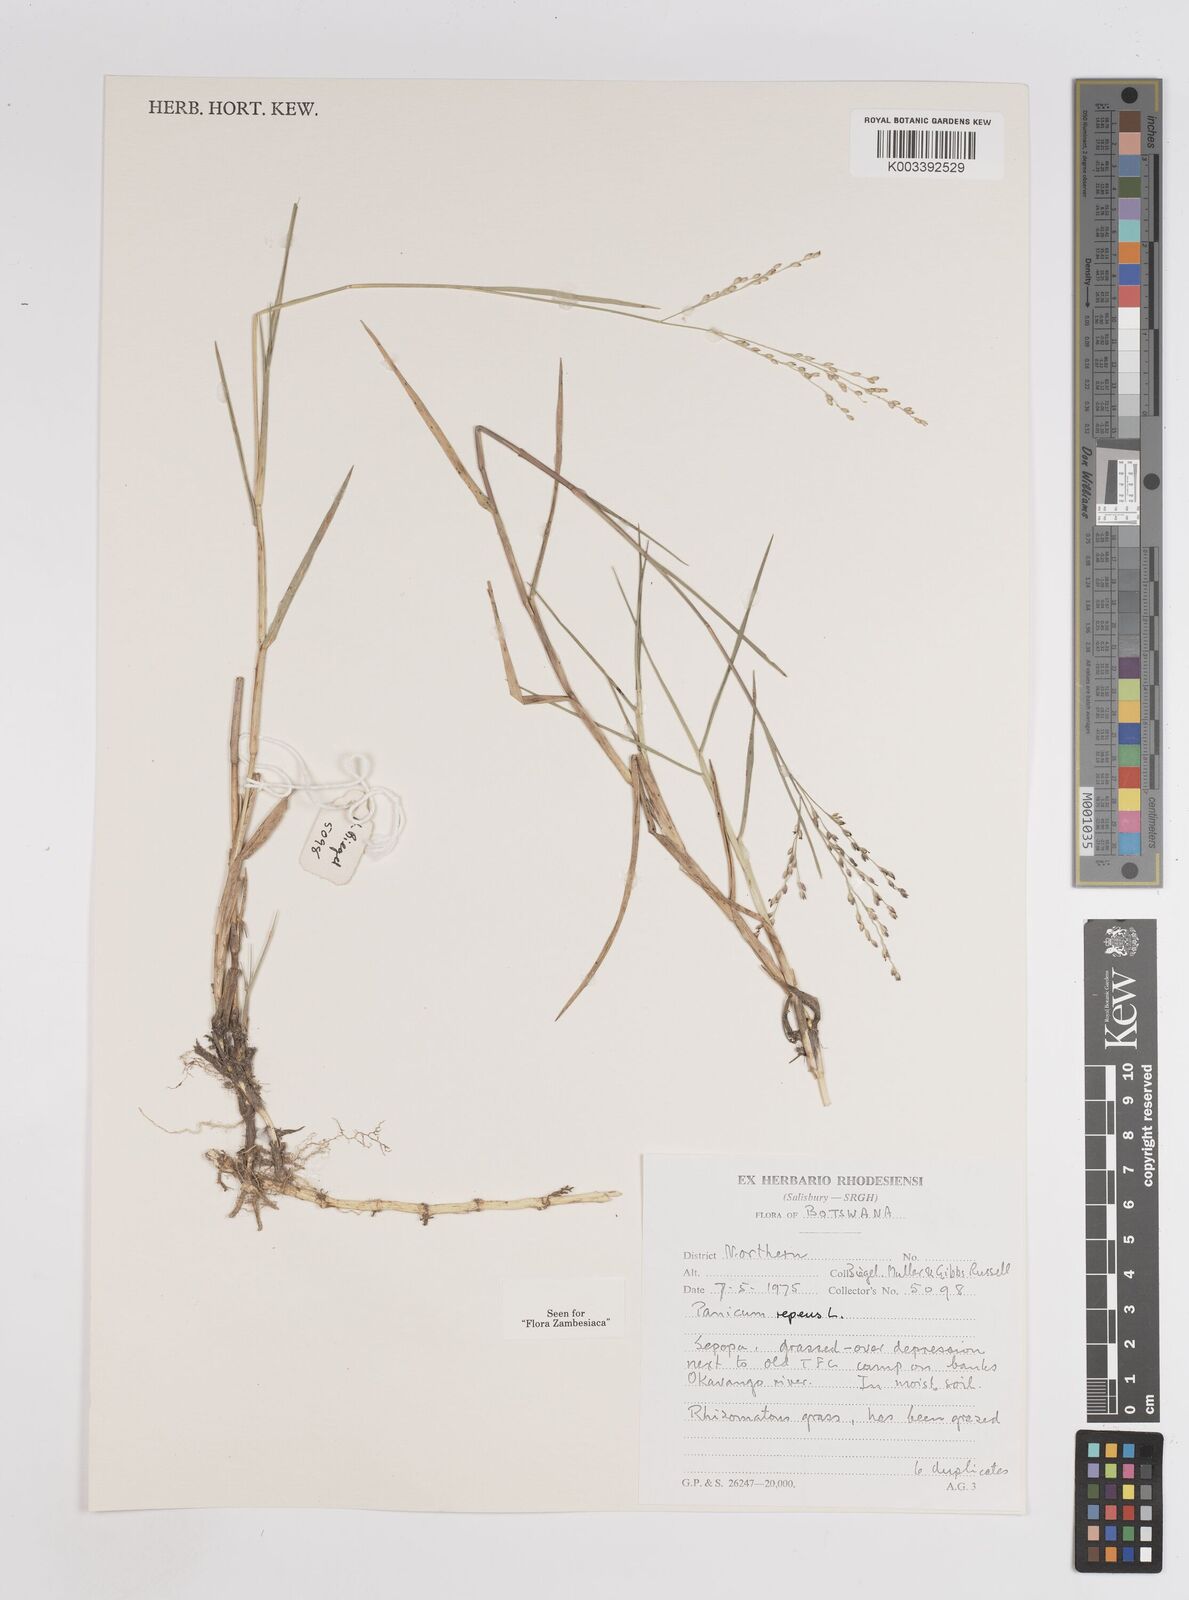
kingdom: Plantae
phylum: Tracheophyta
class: Liliopsida
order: Poales
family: Poaceae
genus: Panicum
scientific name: Panicum repens
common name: Torpedo grass
